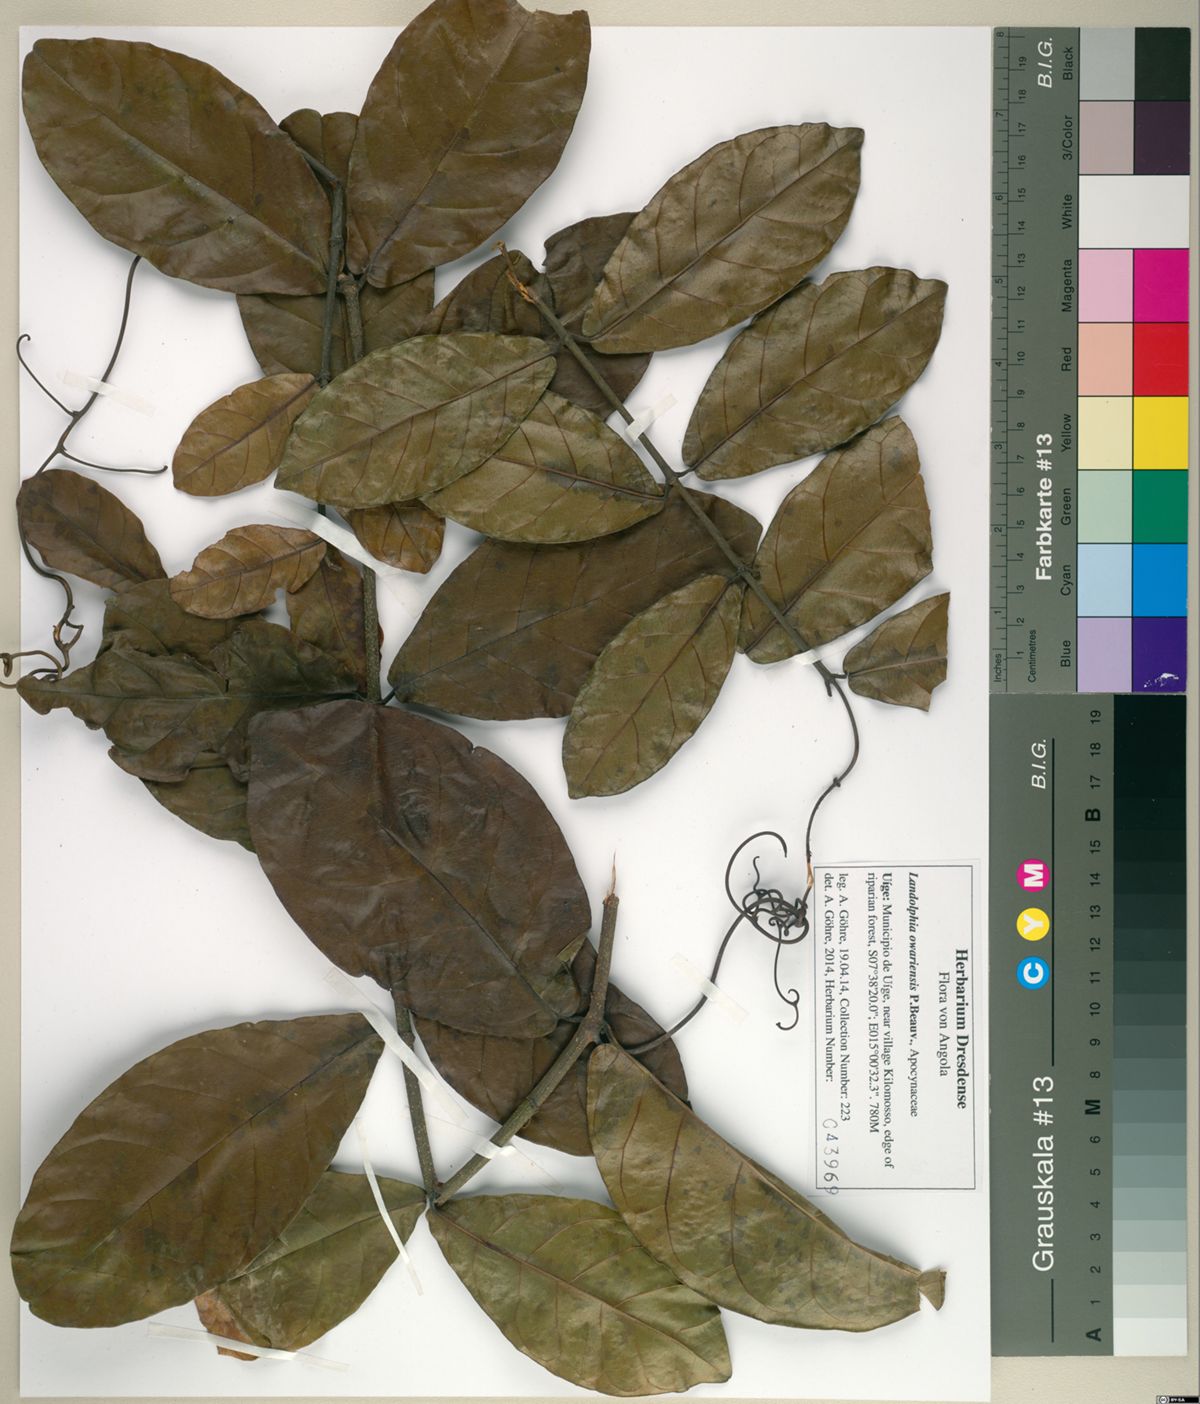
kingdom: Plantae
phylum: Tracheophyta
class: Magnoliopsida
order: Gentianales
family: Apocynaceae
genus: Landolphia
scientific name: Landolphia owariensis
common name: White-ball-rubber
